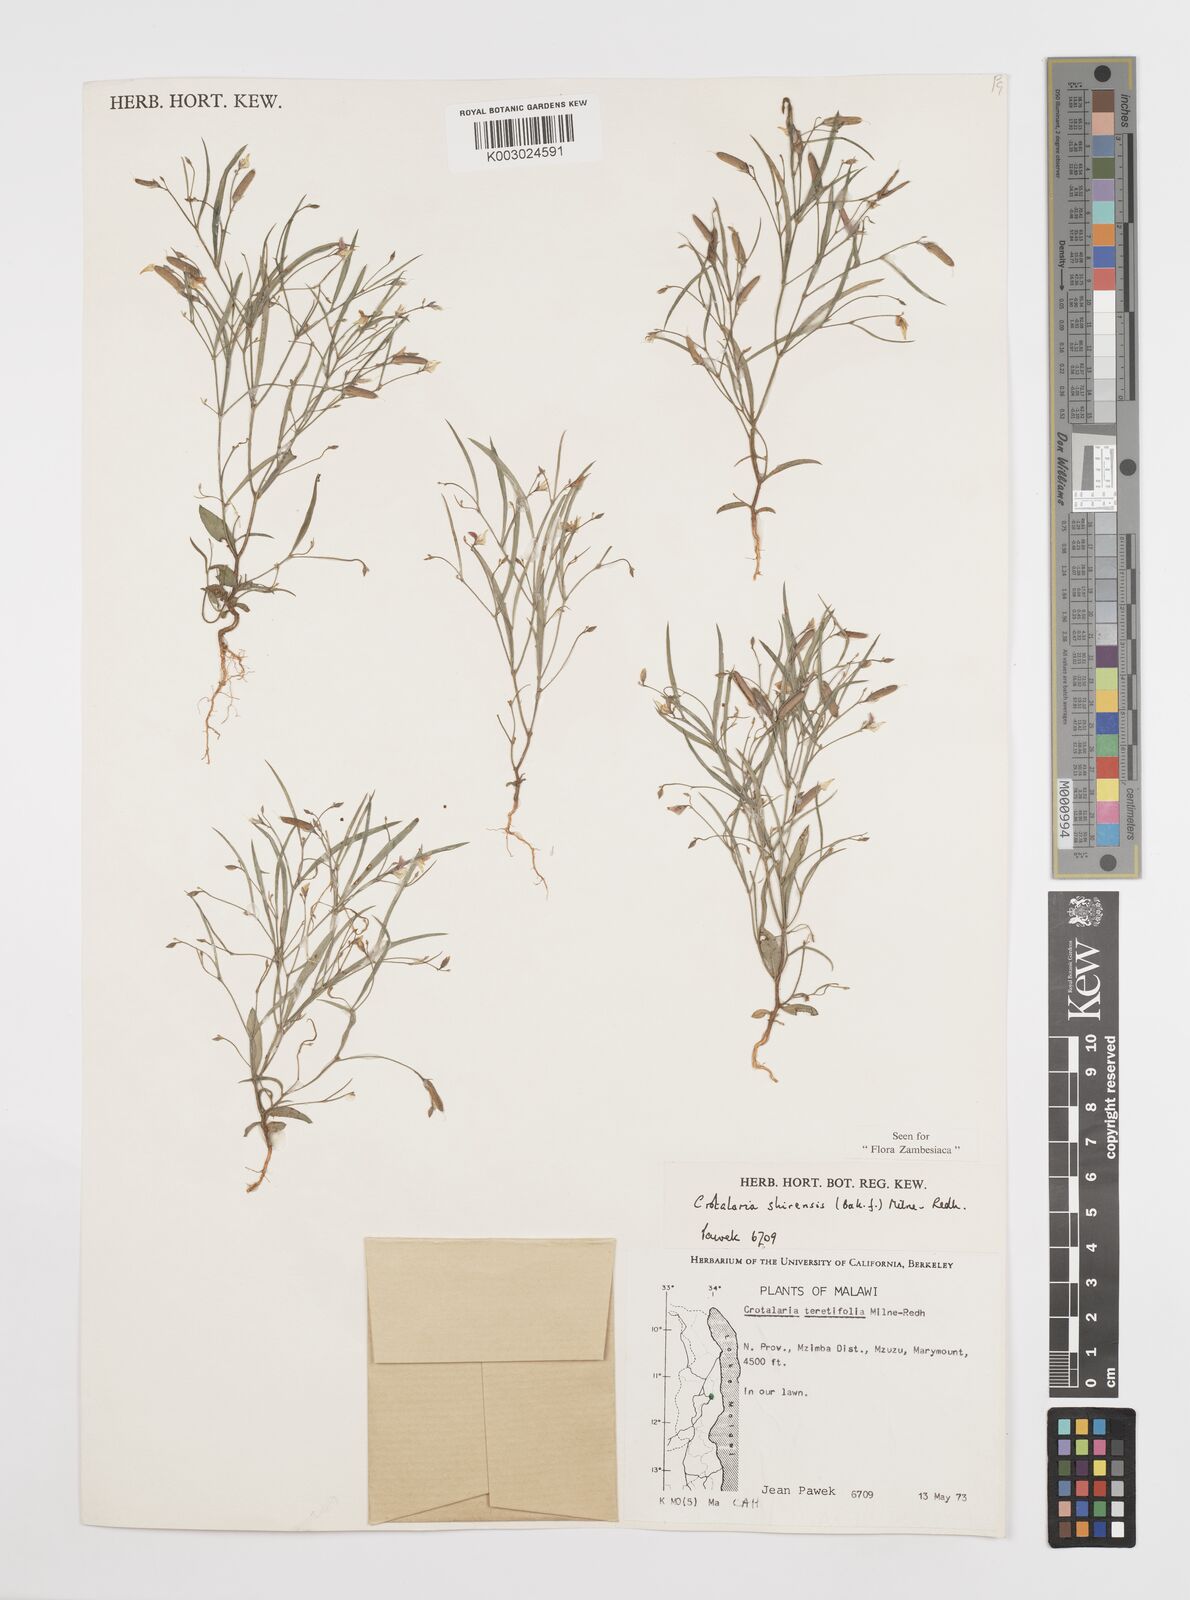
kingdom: Plantae
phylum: Tracheophyta
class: Magnoliopsida
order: Fabales
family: Fabaceae
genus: Crotalaria
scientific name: Crotalaria shirensis
